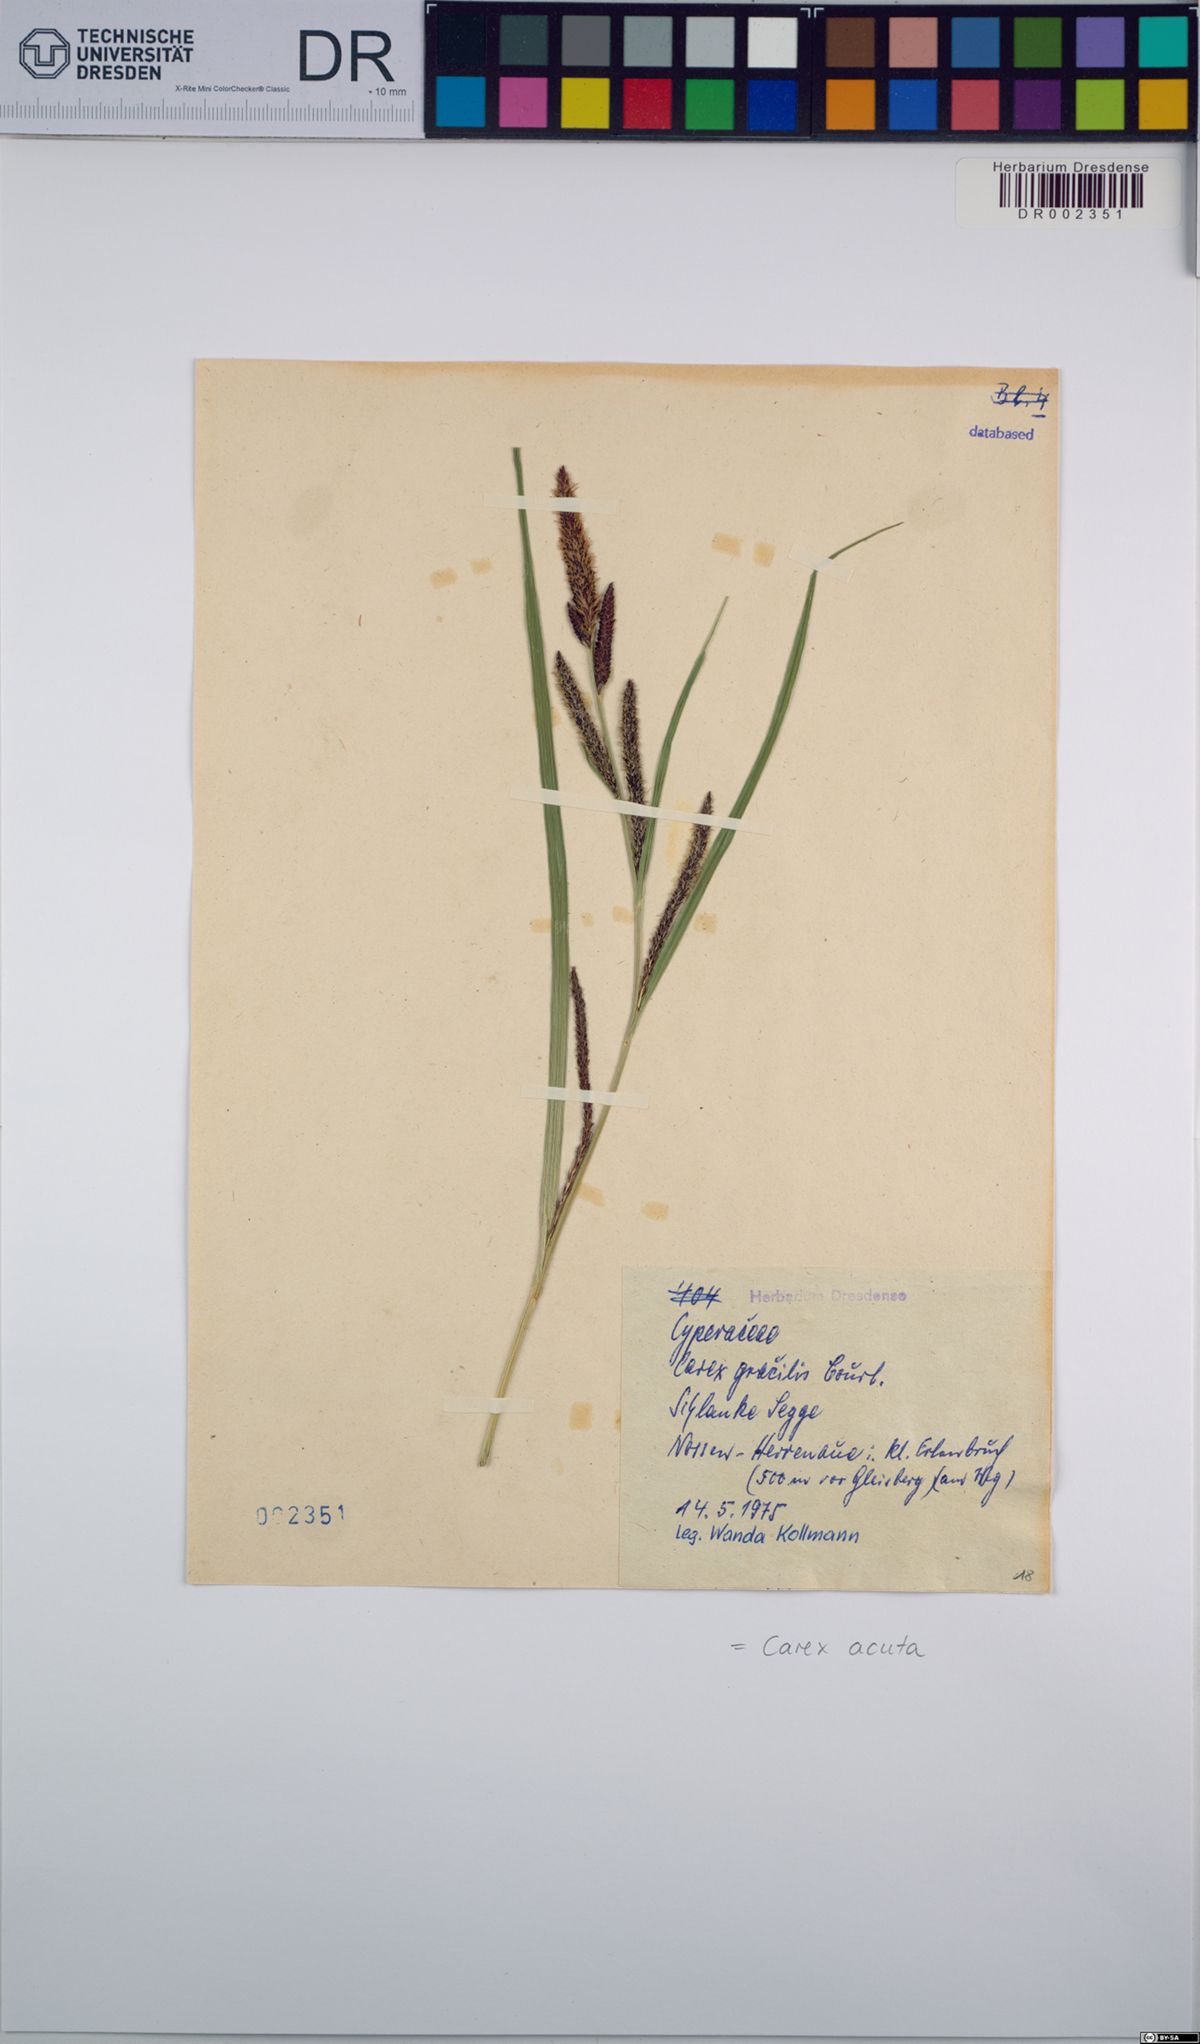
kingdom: Plantae
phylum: Tracheophyta
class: Liliopsida
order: Poales
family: Cyperaceae
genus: Carex
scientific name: Carex acuta
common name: Slender tufted-sedge
